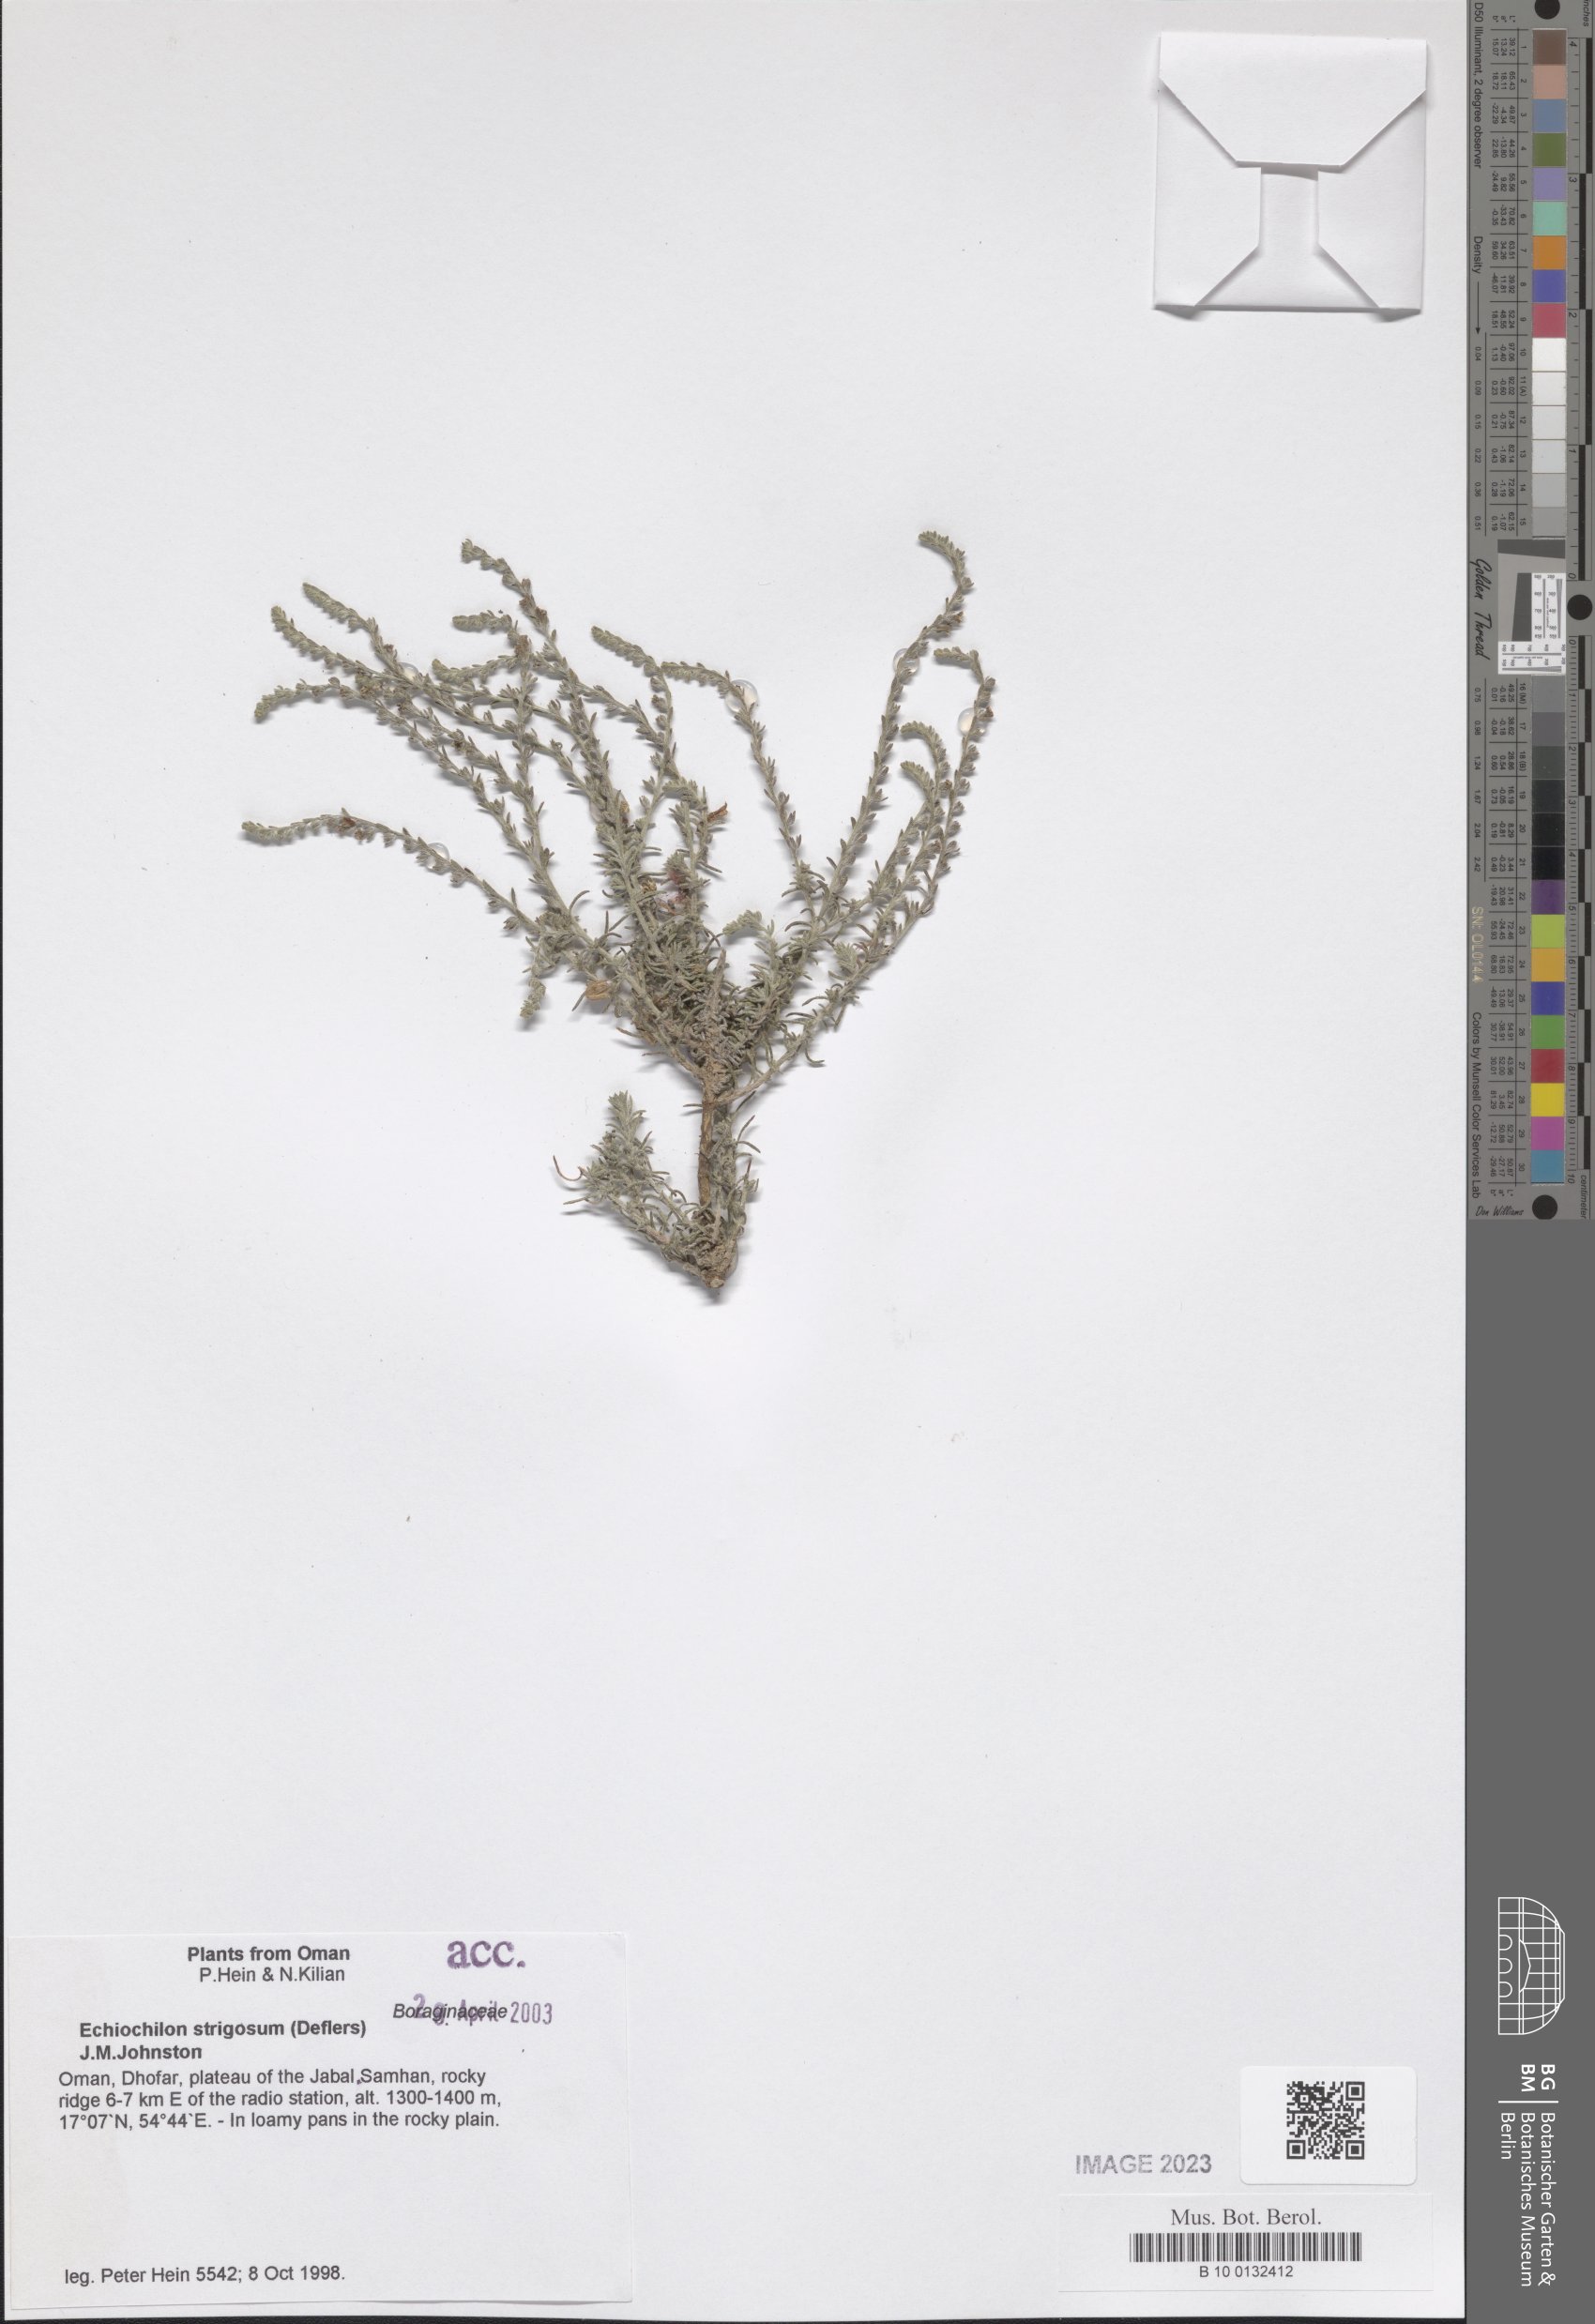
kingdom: Plantae
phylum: Tracheophyta
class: Magnoliopsida
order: Boraginales
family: Boraginaceae
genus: Echiochilon
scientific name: Echiochilon persicum
